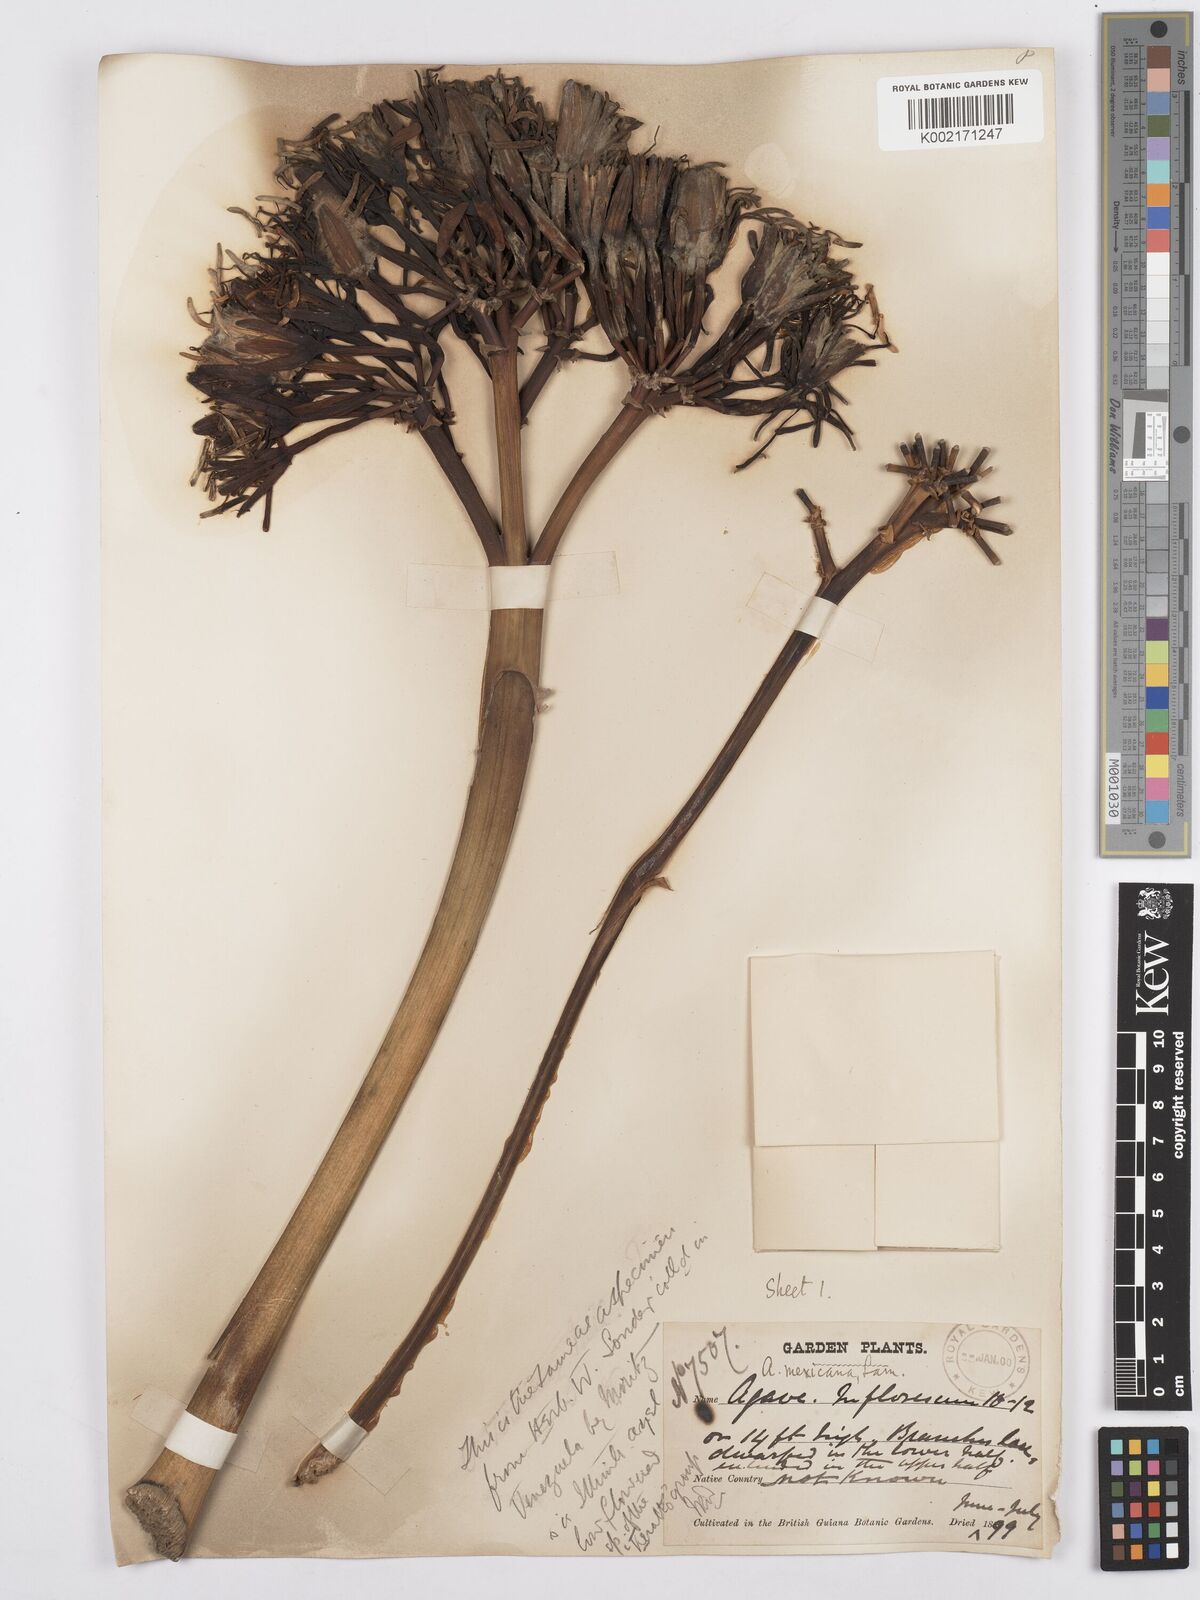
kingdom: Plantae
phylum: Tracheophyta
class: Liliopsida
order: Asparagales
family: Asparagaceae
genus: Agave
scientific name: Agave americana
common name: Centuryplant
